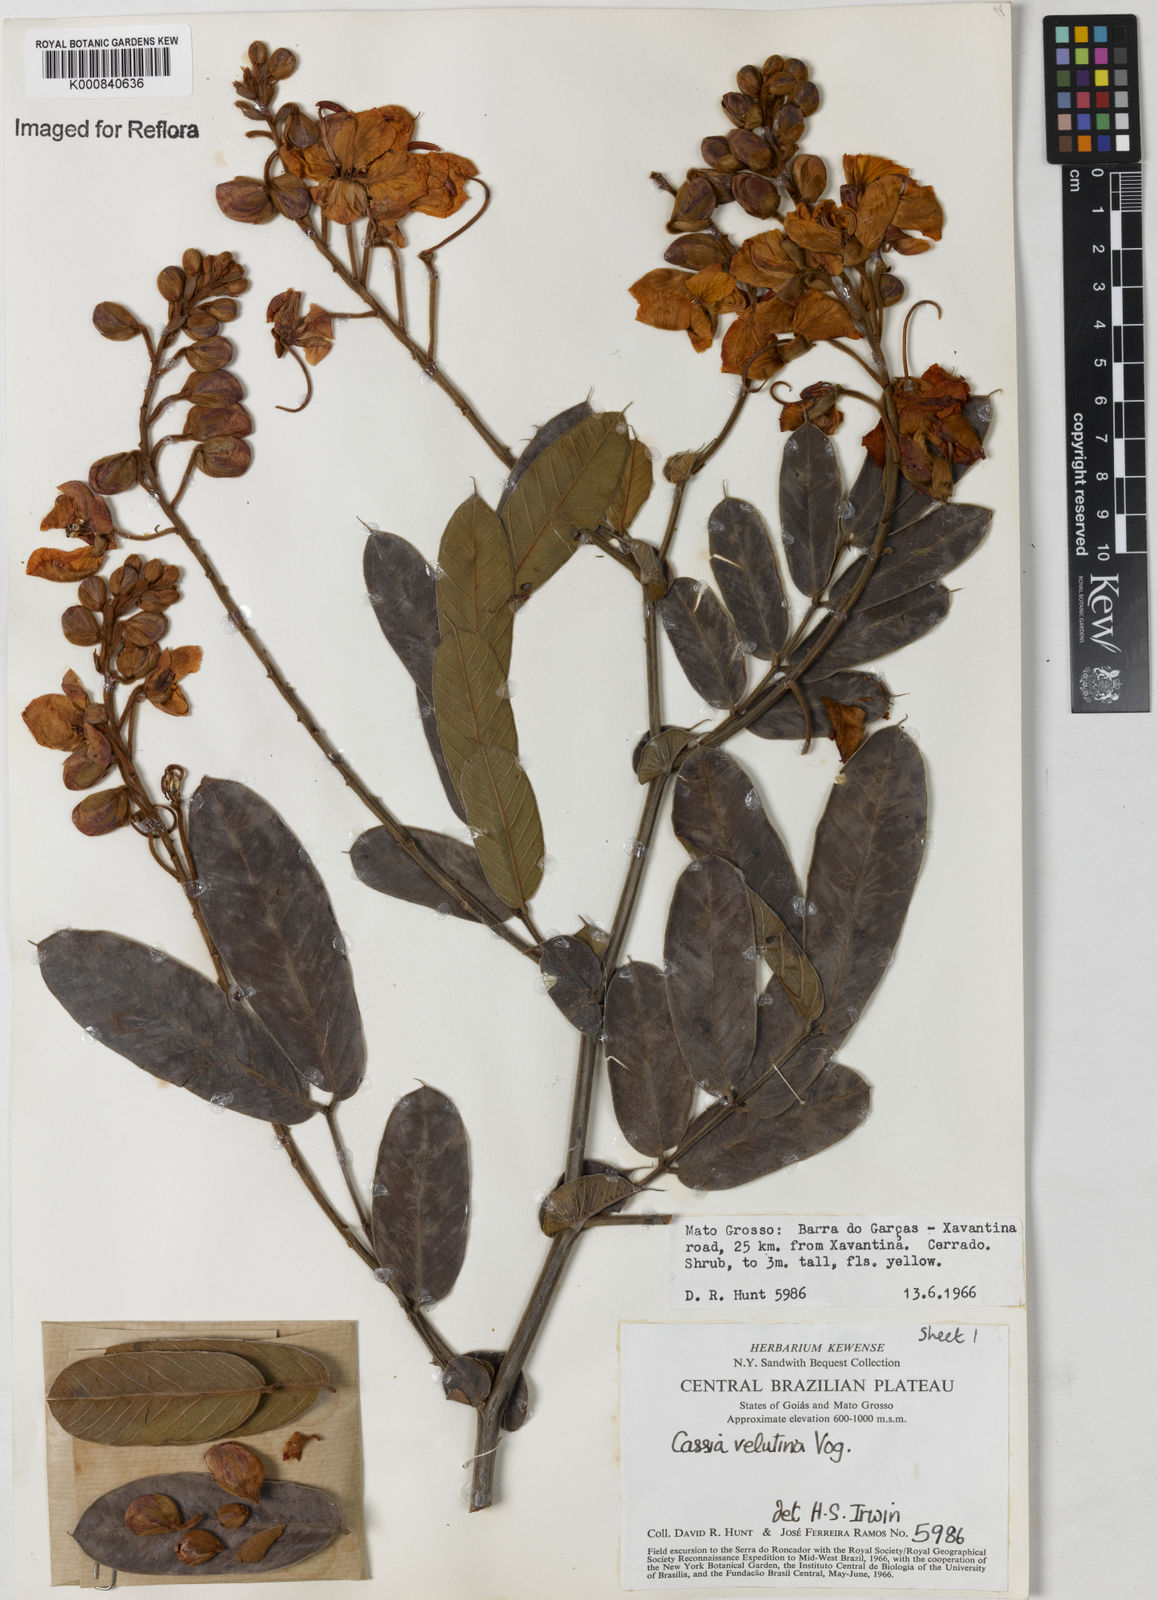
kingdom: Plantae
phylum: Tracheophyta
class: Magnoliopsida
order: Fabales
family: Fabaceae
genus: Senna
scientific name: Senna velutina
